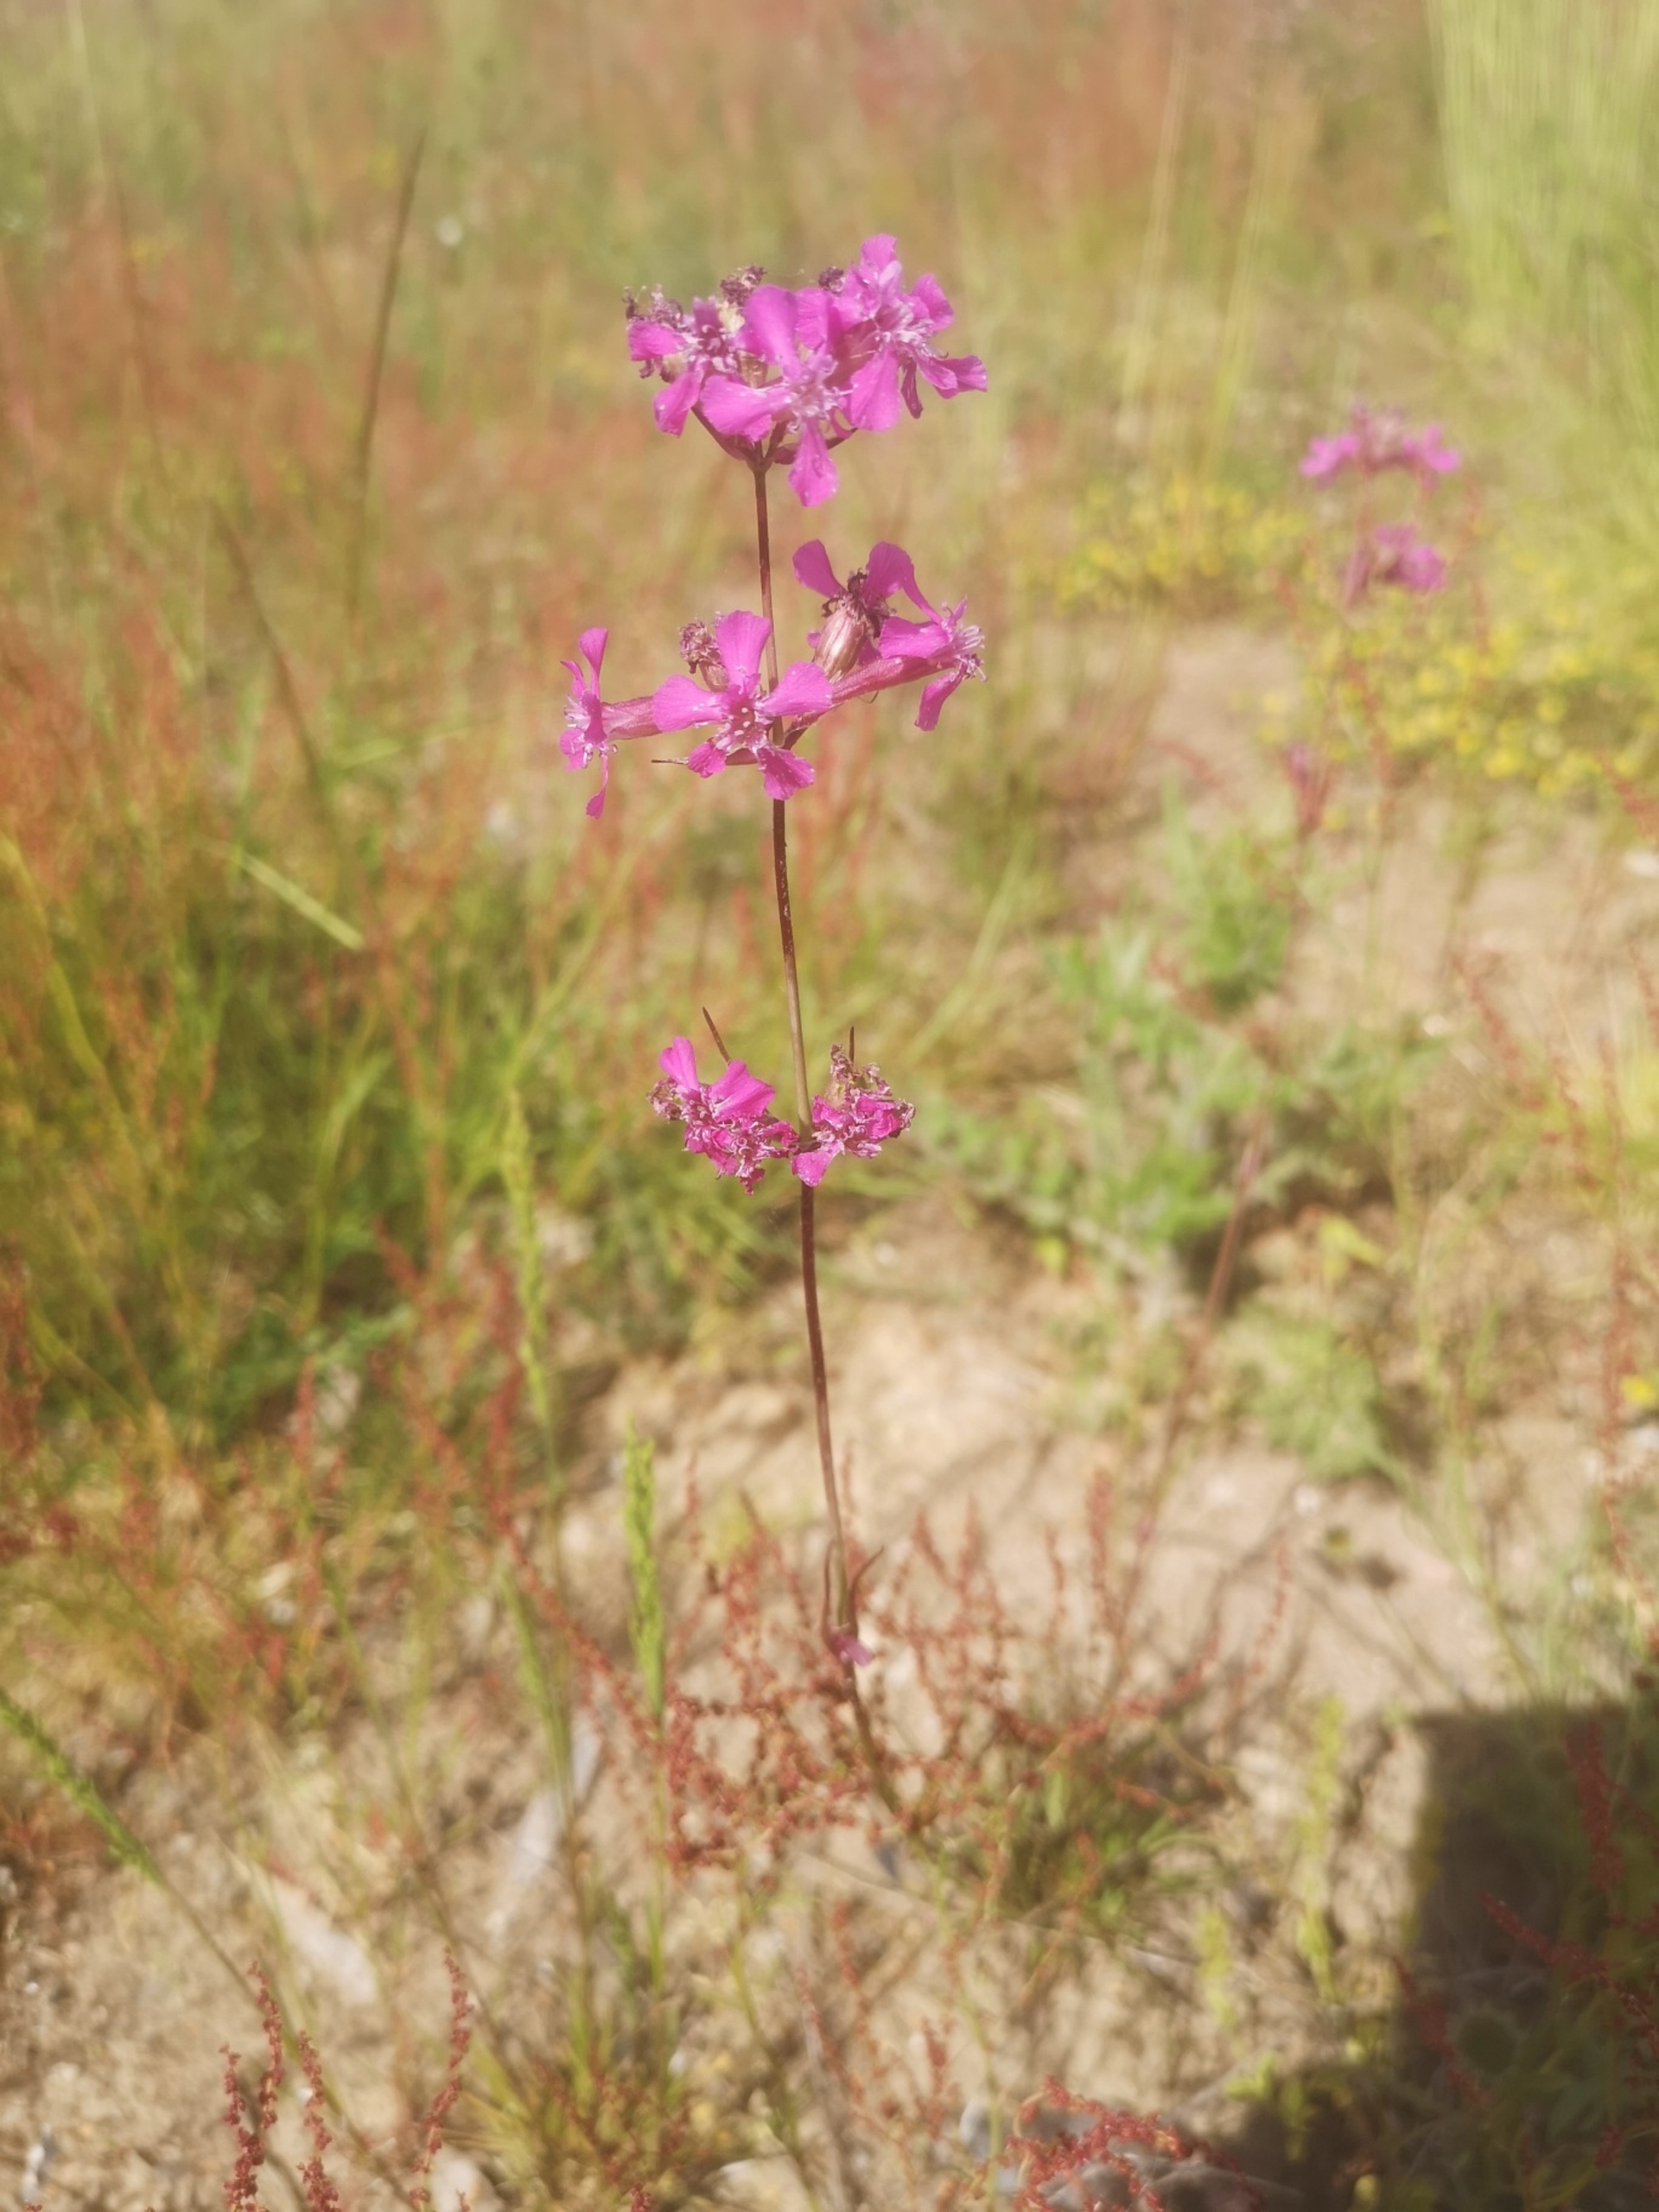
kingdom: Plantae
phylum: Tracheophyta
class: Magnoliopsida
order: Caryophyllales
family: Caryophyllaceae
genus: Viscaria
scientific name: Viscaria vulgaris
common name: Tjærenellike
